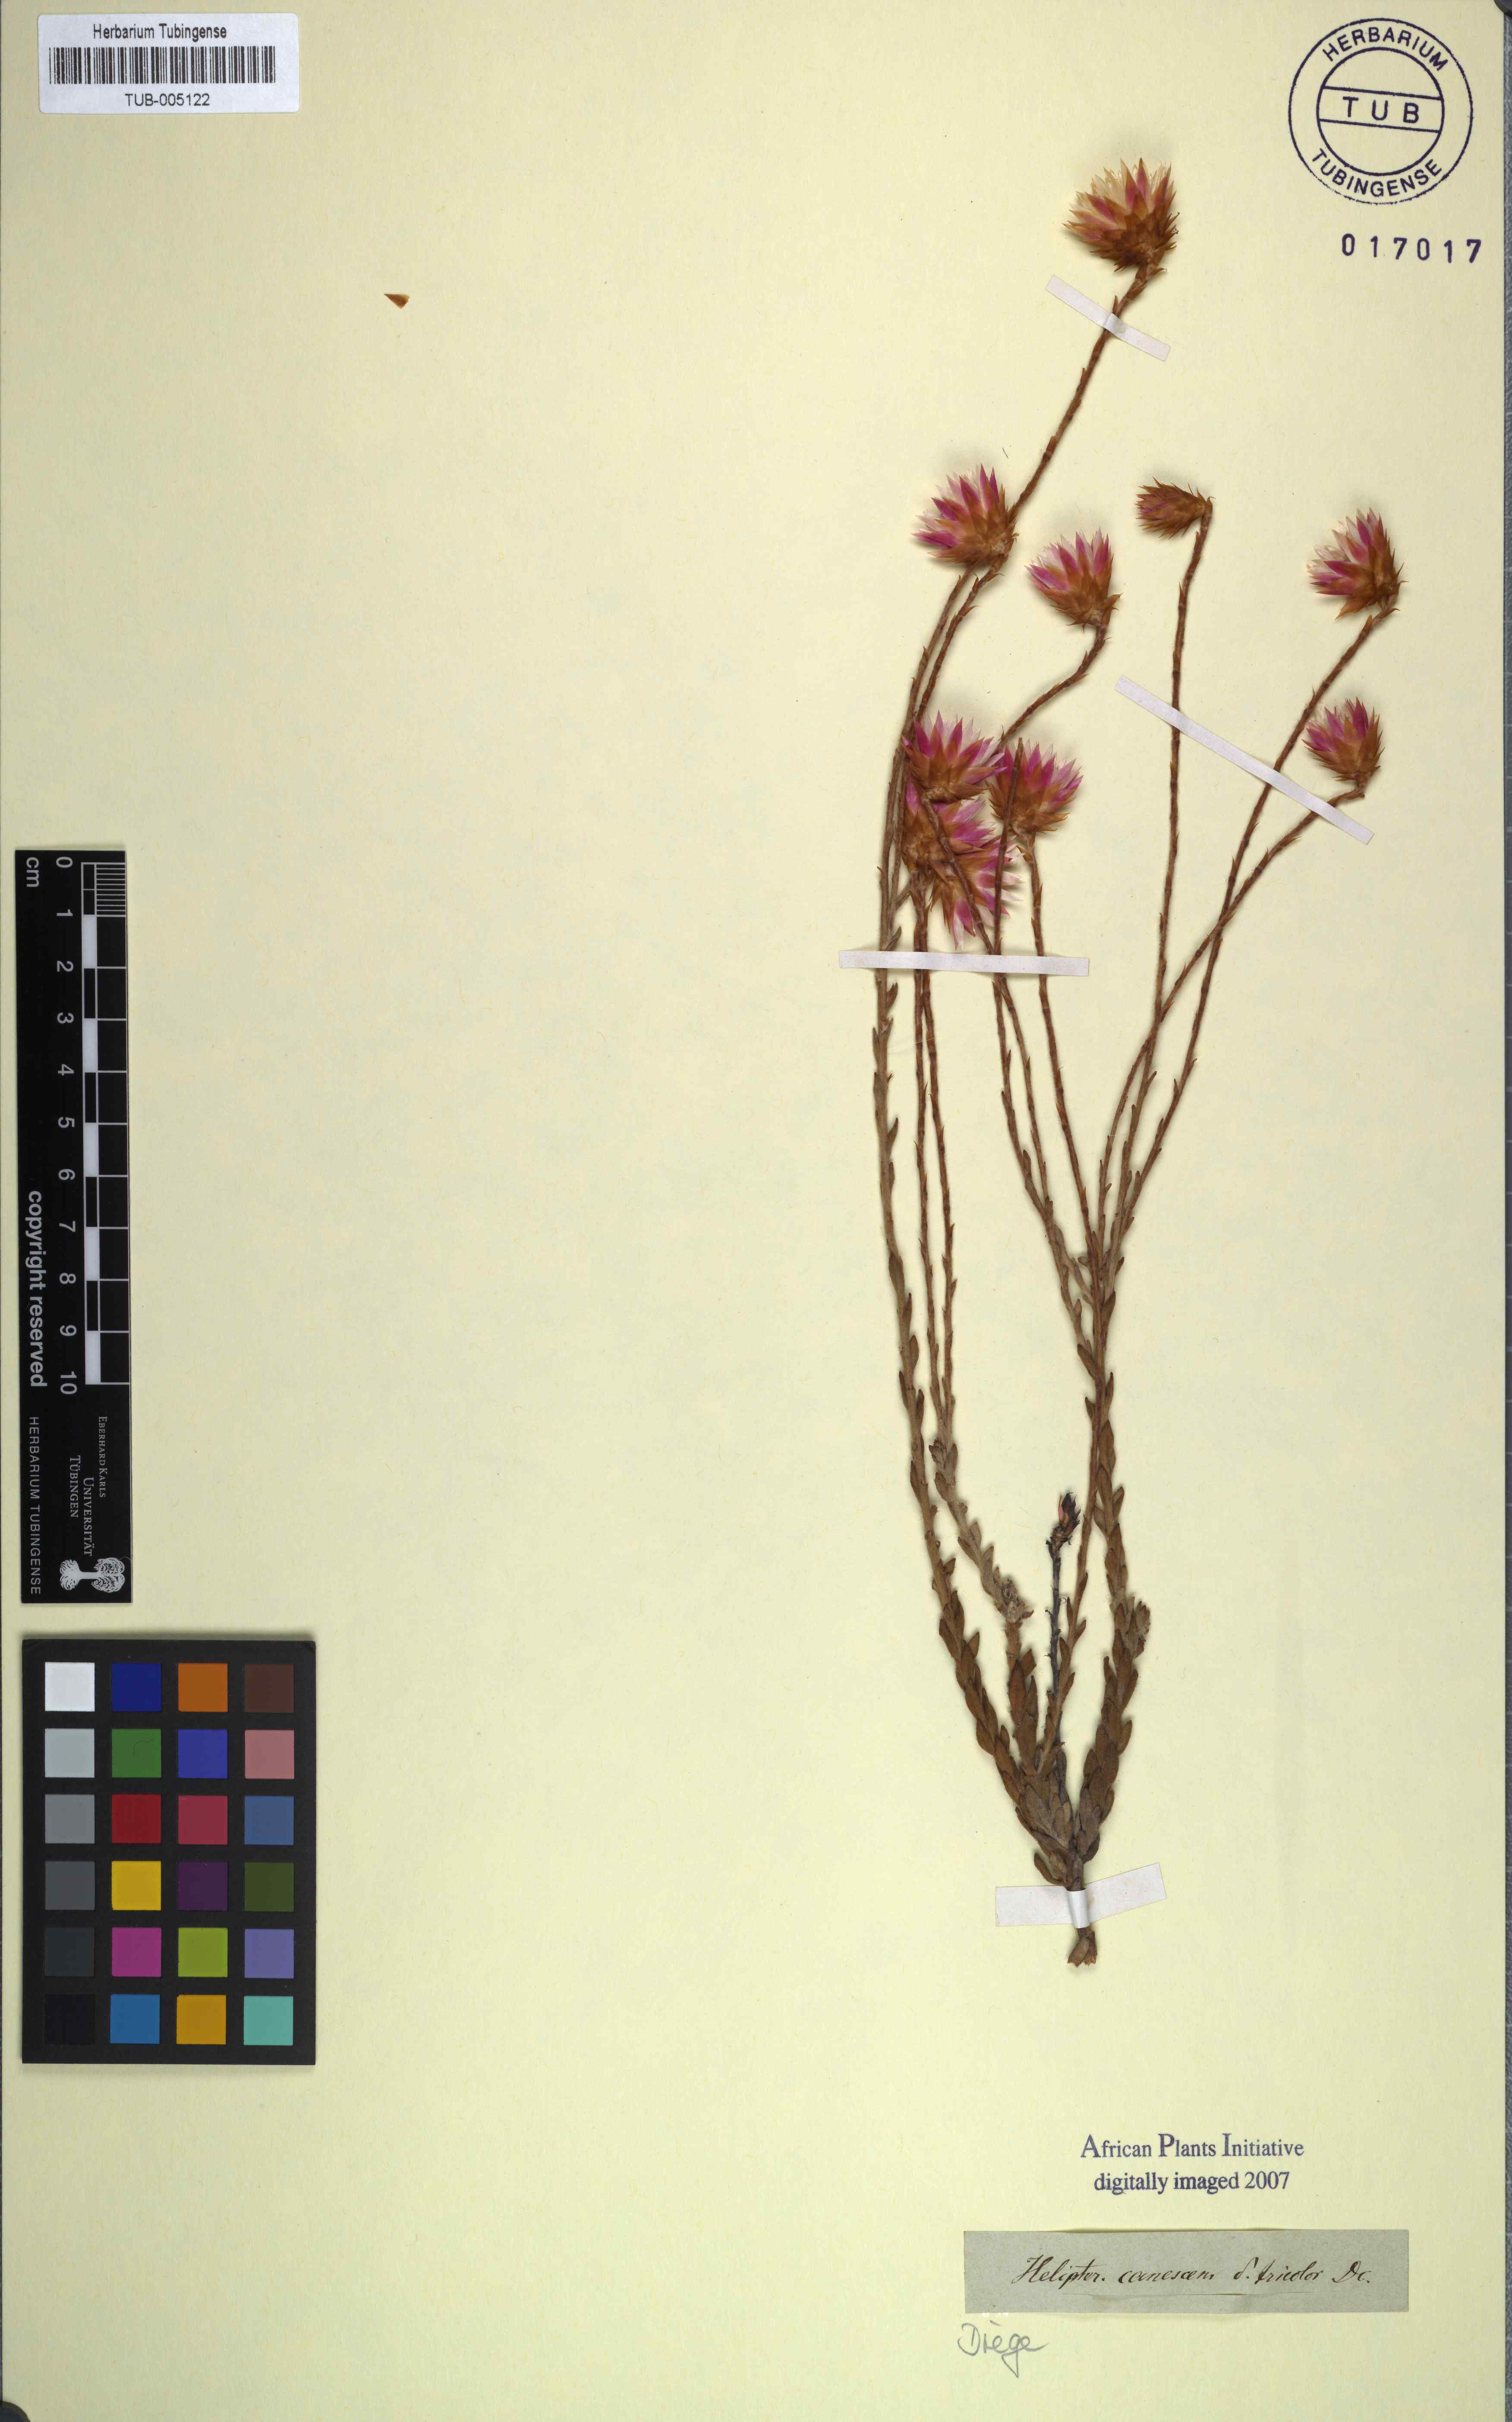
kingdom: Plantae
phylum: Tracheophyta
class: Magnoliopsida
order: Asterales
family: Asteraceae
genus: Syncarpha
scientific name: Syncarpha canescens
